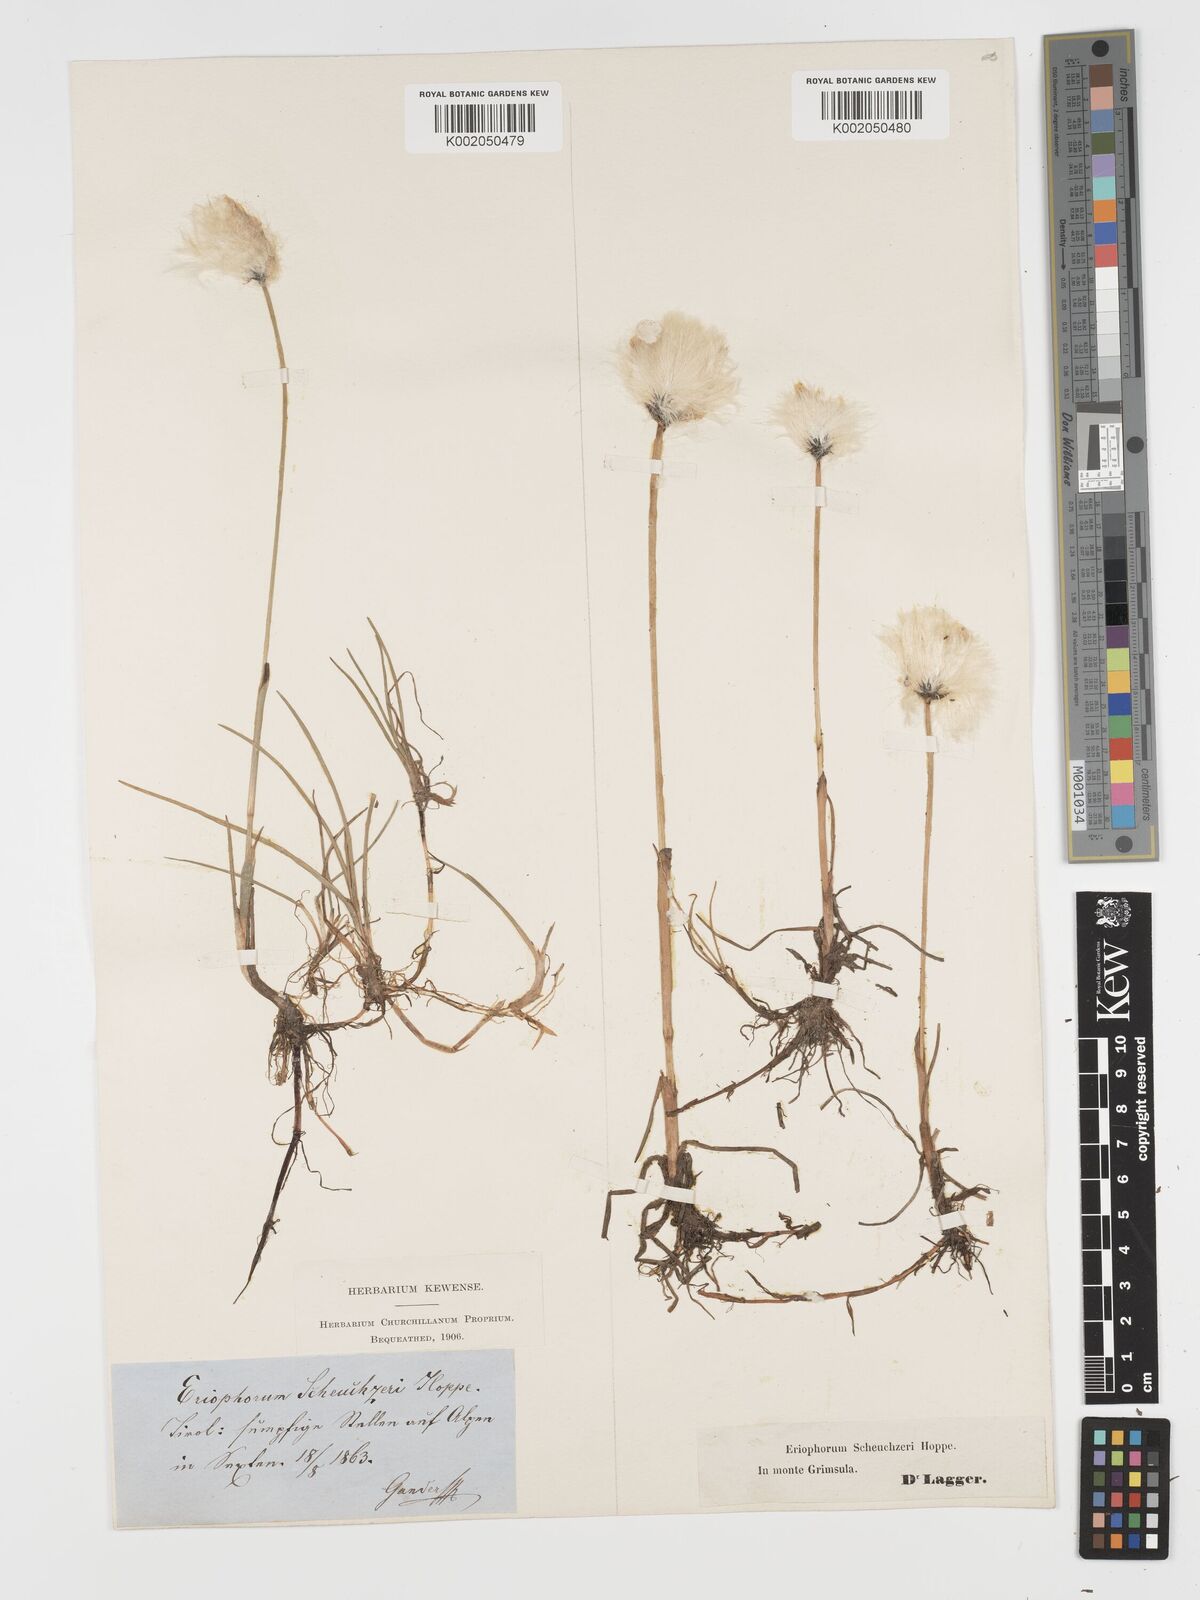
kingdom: Plantae
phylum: Tracheophyta
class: Liliopsida
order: Poales
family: Cyperaceae
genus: Eriophorum
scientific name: Eriophorum scheuchzeri
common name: Scheuchzer's cottongrass
